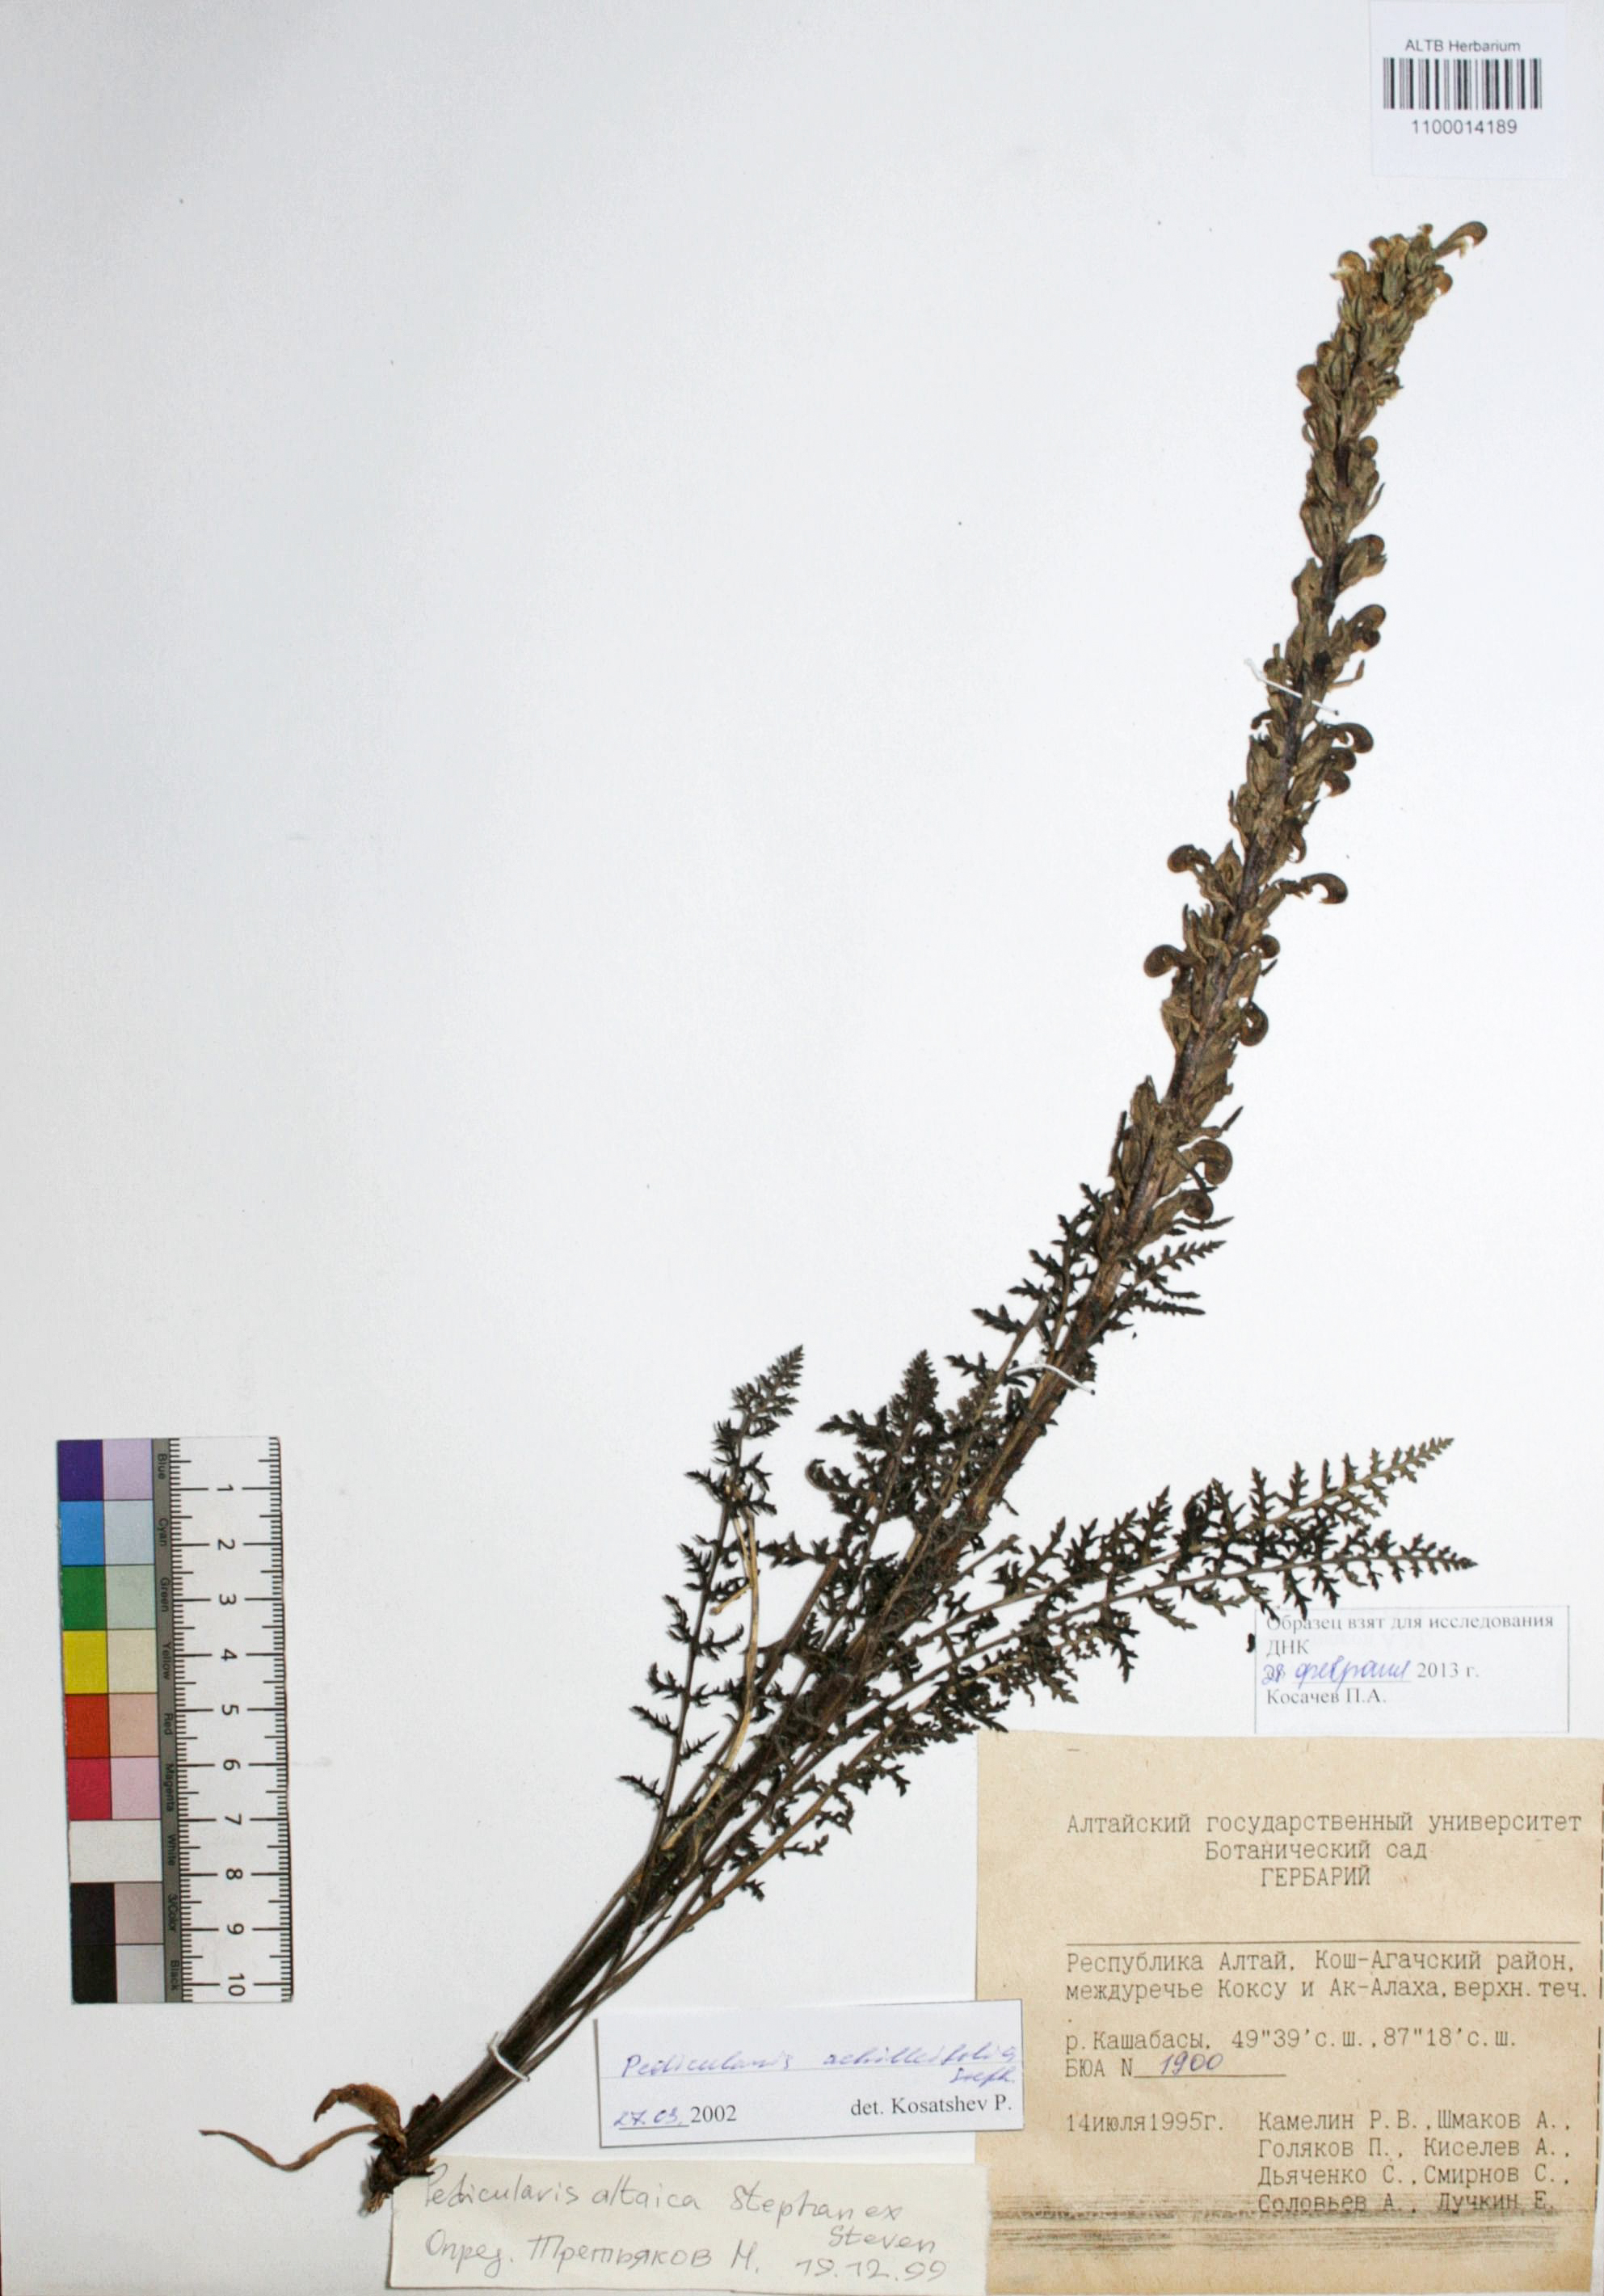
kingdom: Plantae
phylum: Tracheophyta
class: Magnoliopsida
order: Lamiales
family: Orobanchaceae
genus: Pedicularis
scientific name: Pedicularis achilleifolia
